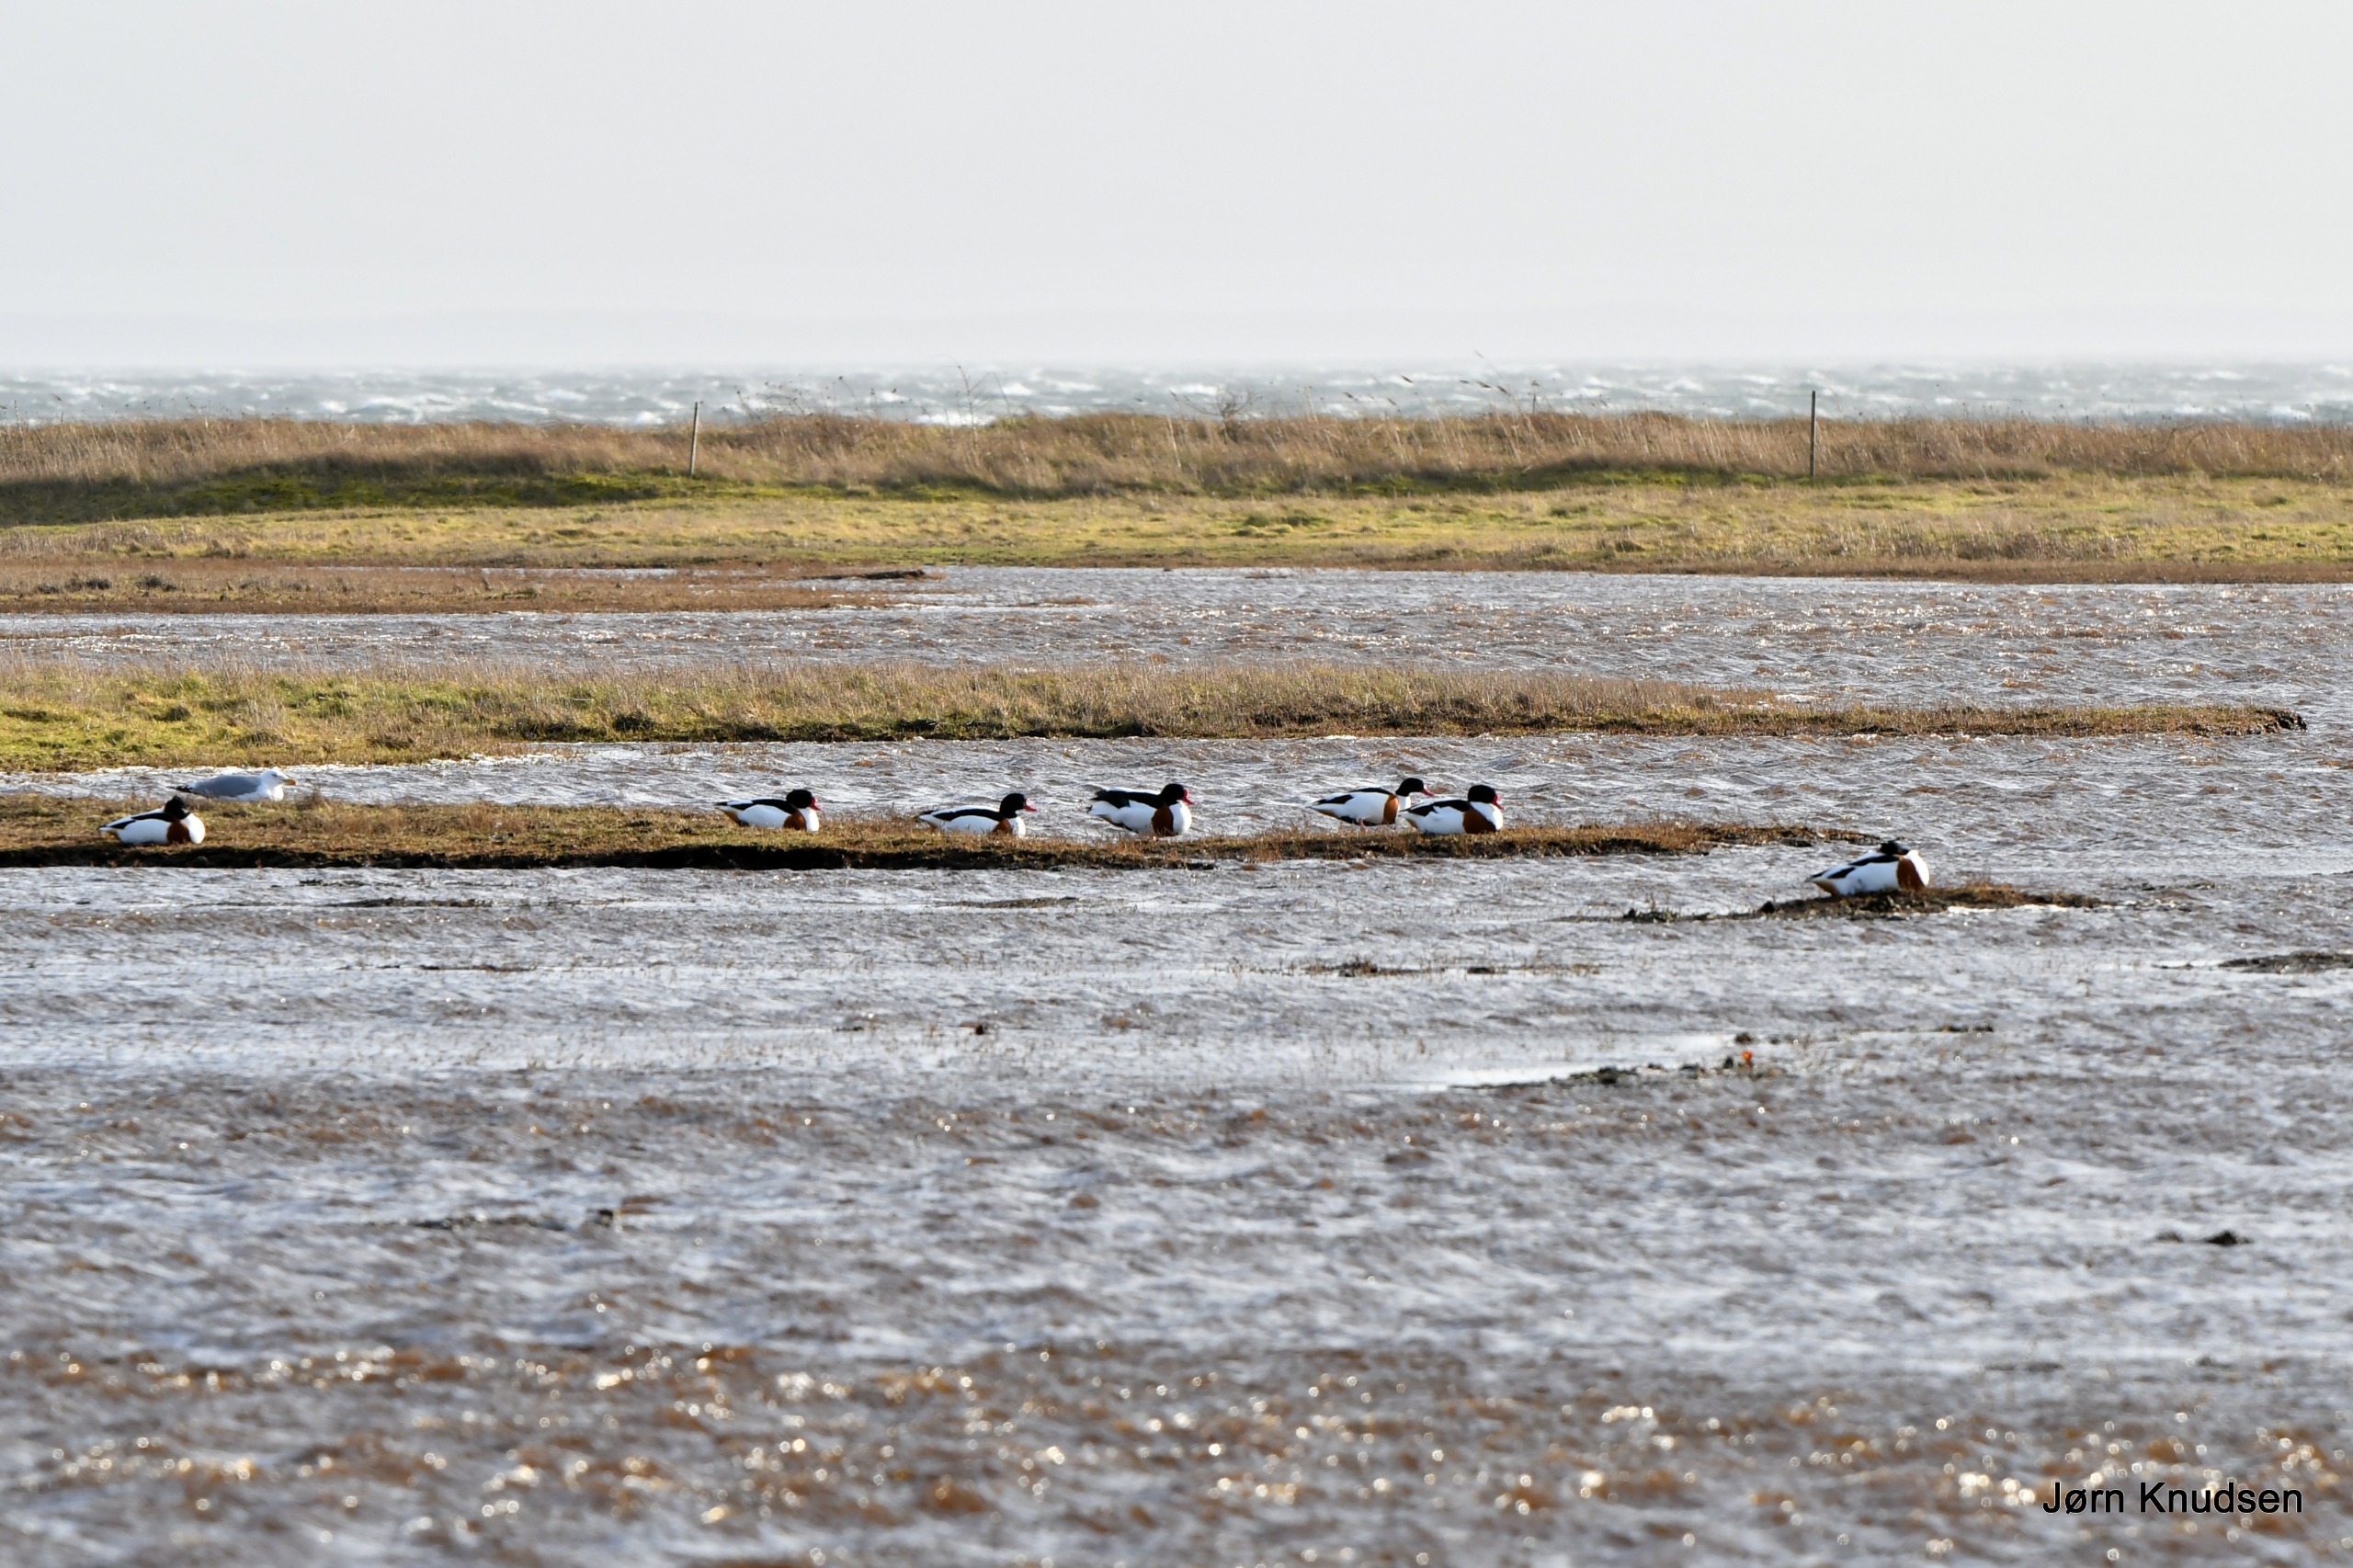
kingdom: Animalia
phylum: Chordata
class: Aves
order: Anseriformes
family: Anatidae
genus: Tadorna
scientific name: Tadorna tadorna
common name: Gravand
